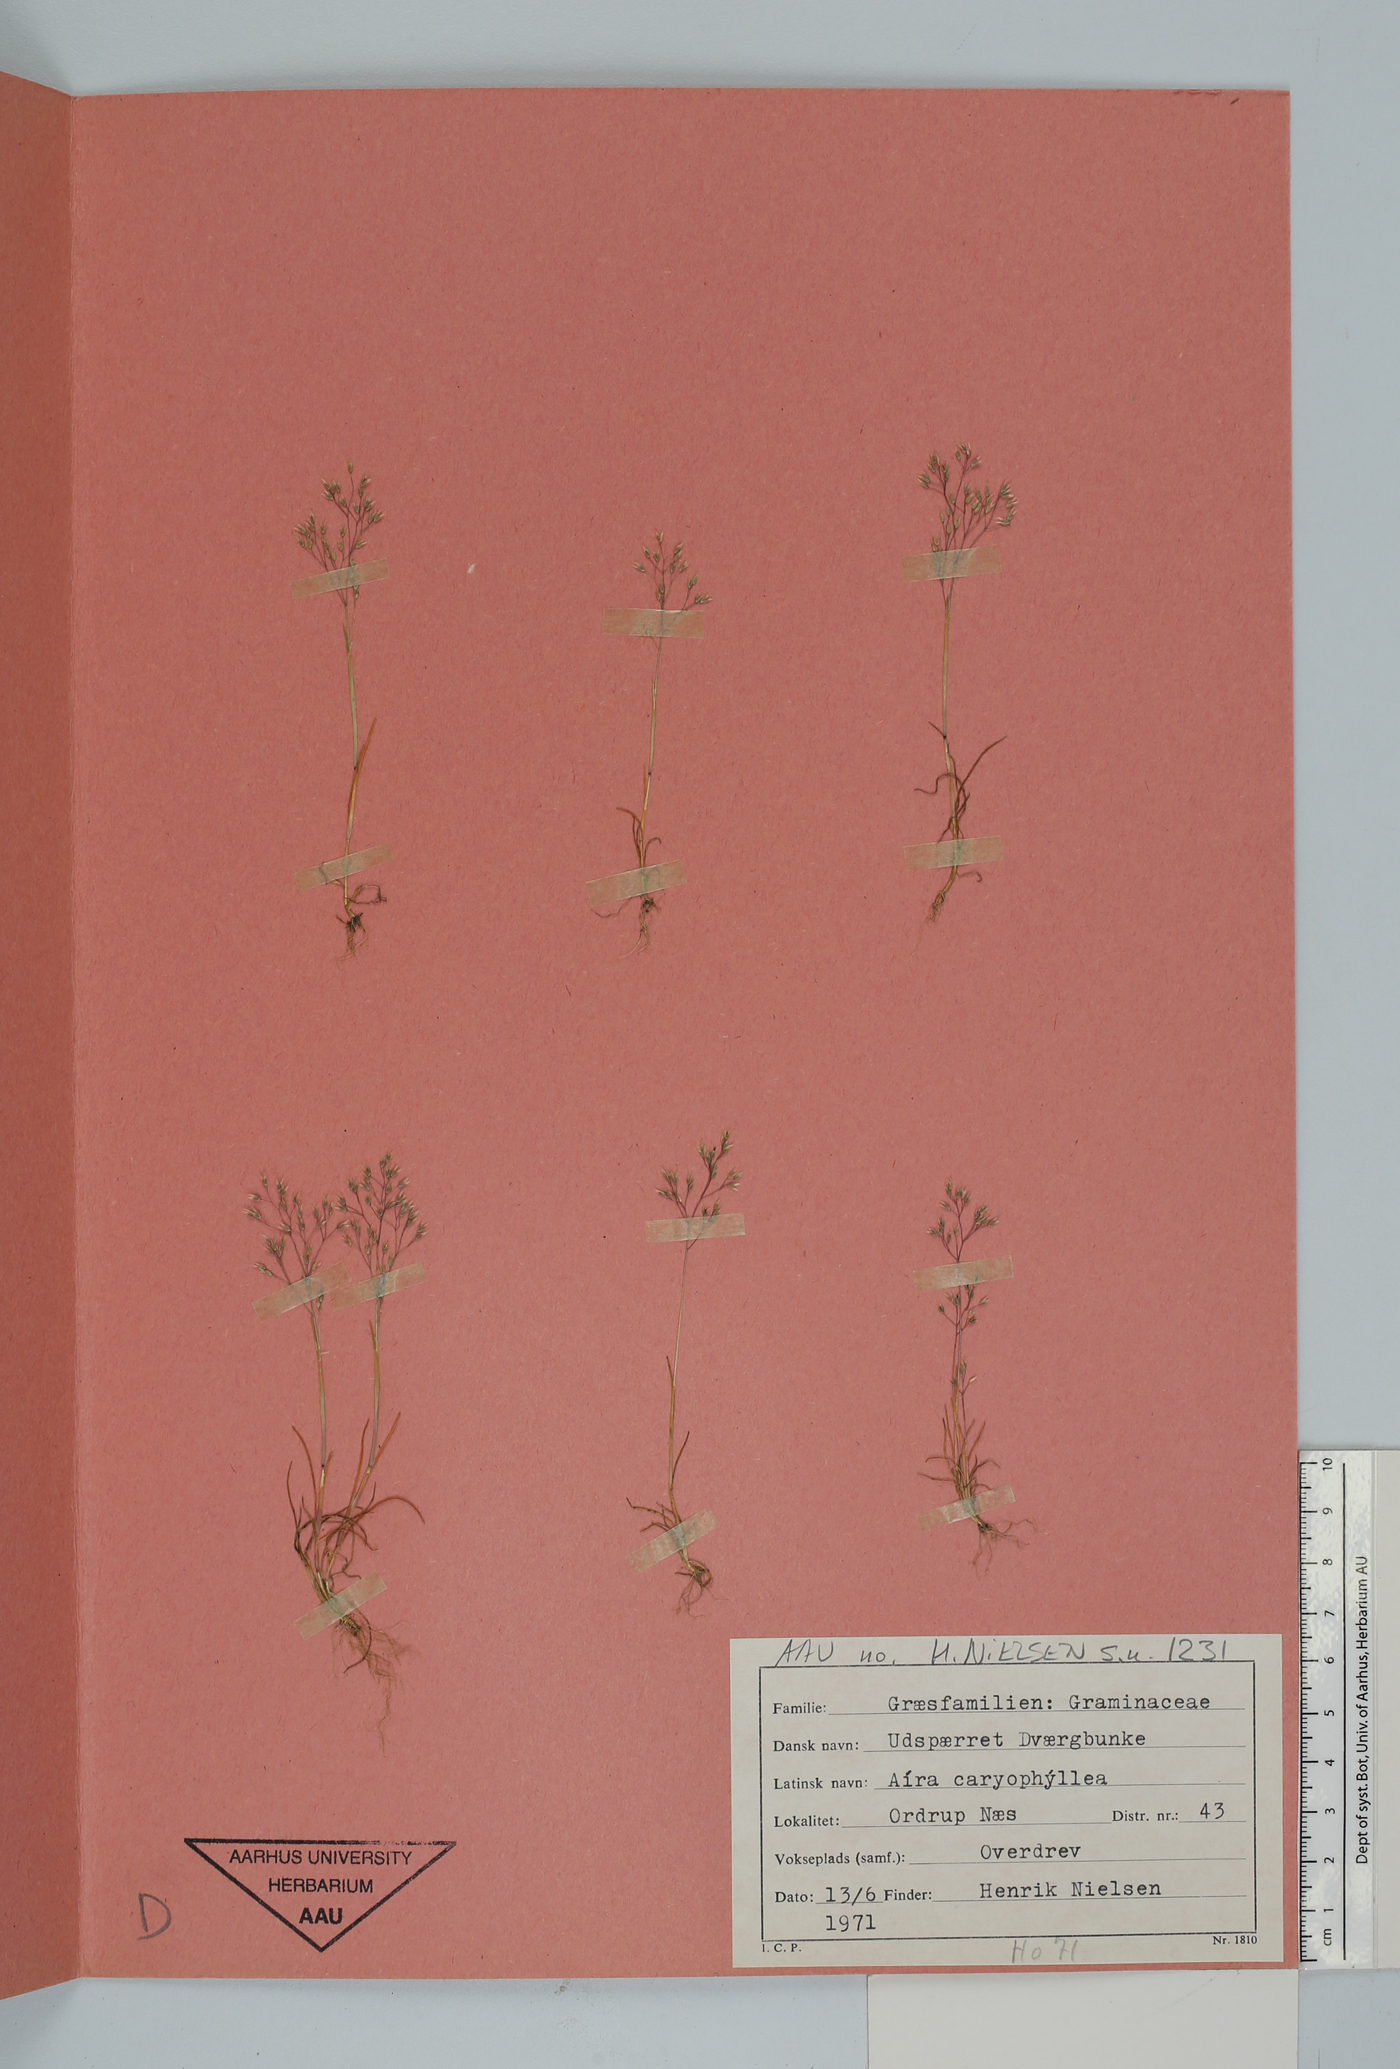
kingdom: Plantae
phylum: Tracheophyta
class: Liliopsida
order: Poales
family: Poaceae
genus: Aira
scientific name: Aira caryophyllea
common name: Silver hairgrass
